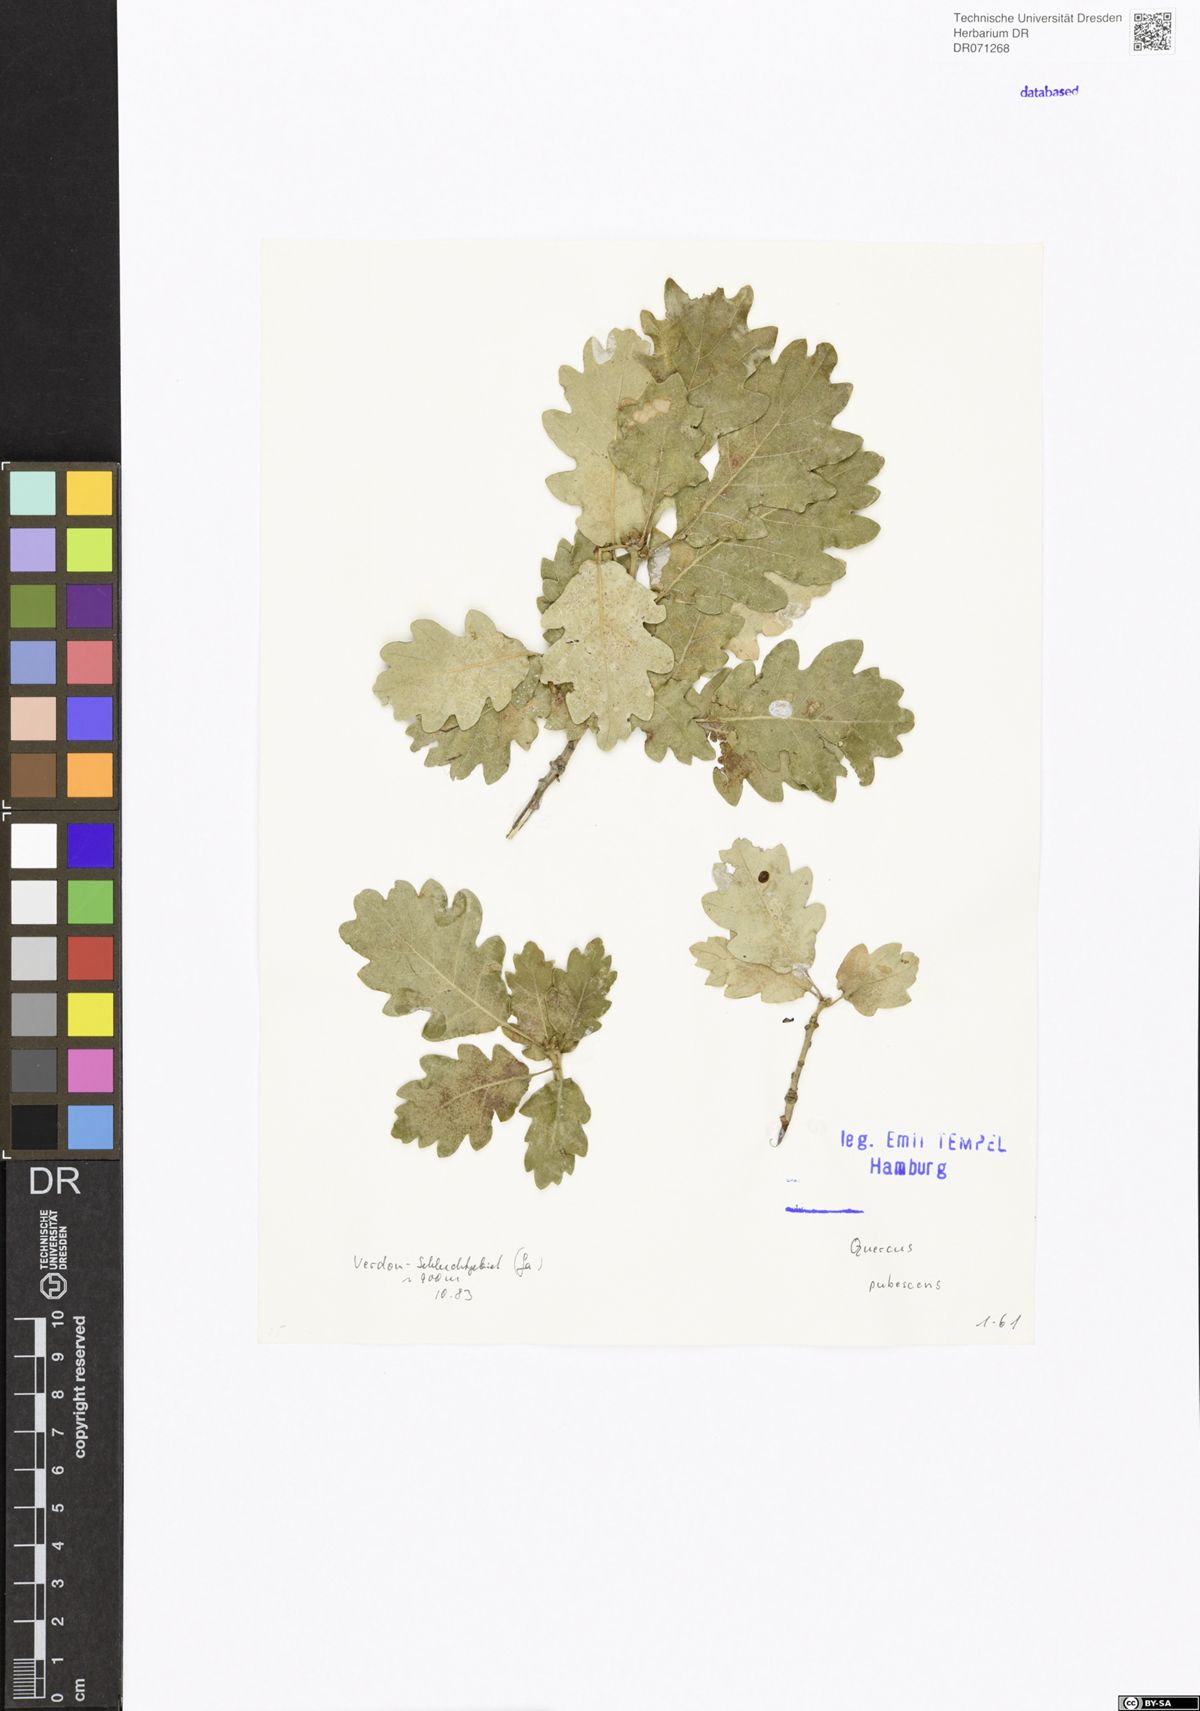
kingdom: Plantae
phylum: Tracheophyta
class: Magnoliopsida
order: Fagales
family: Fagaceae
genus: Quercus
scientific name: Quercus pubescens
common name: Downy oak
